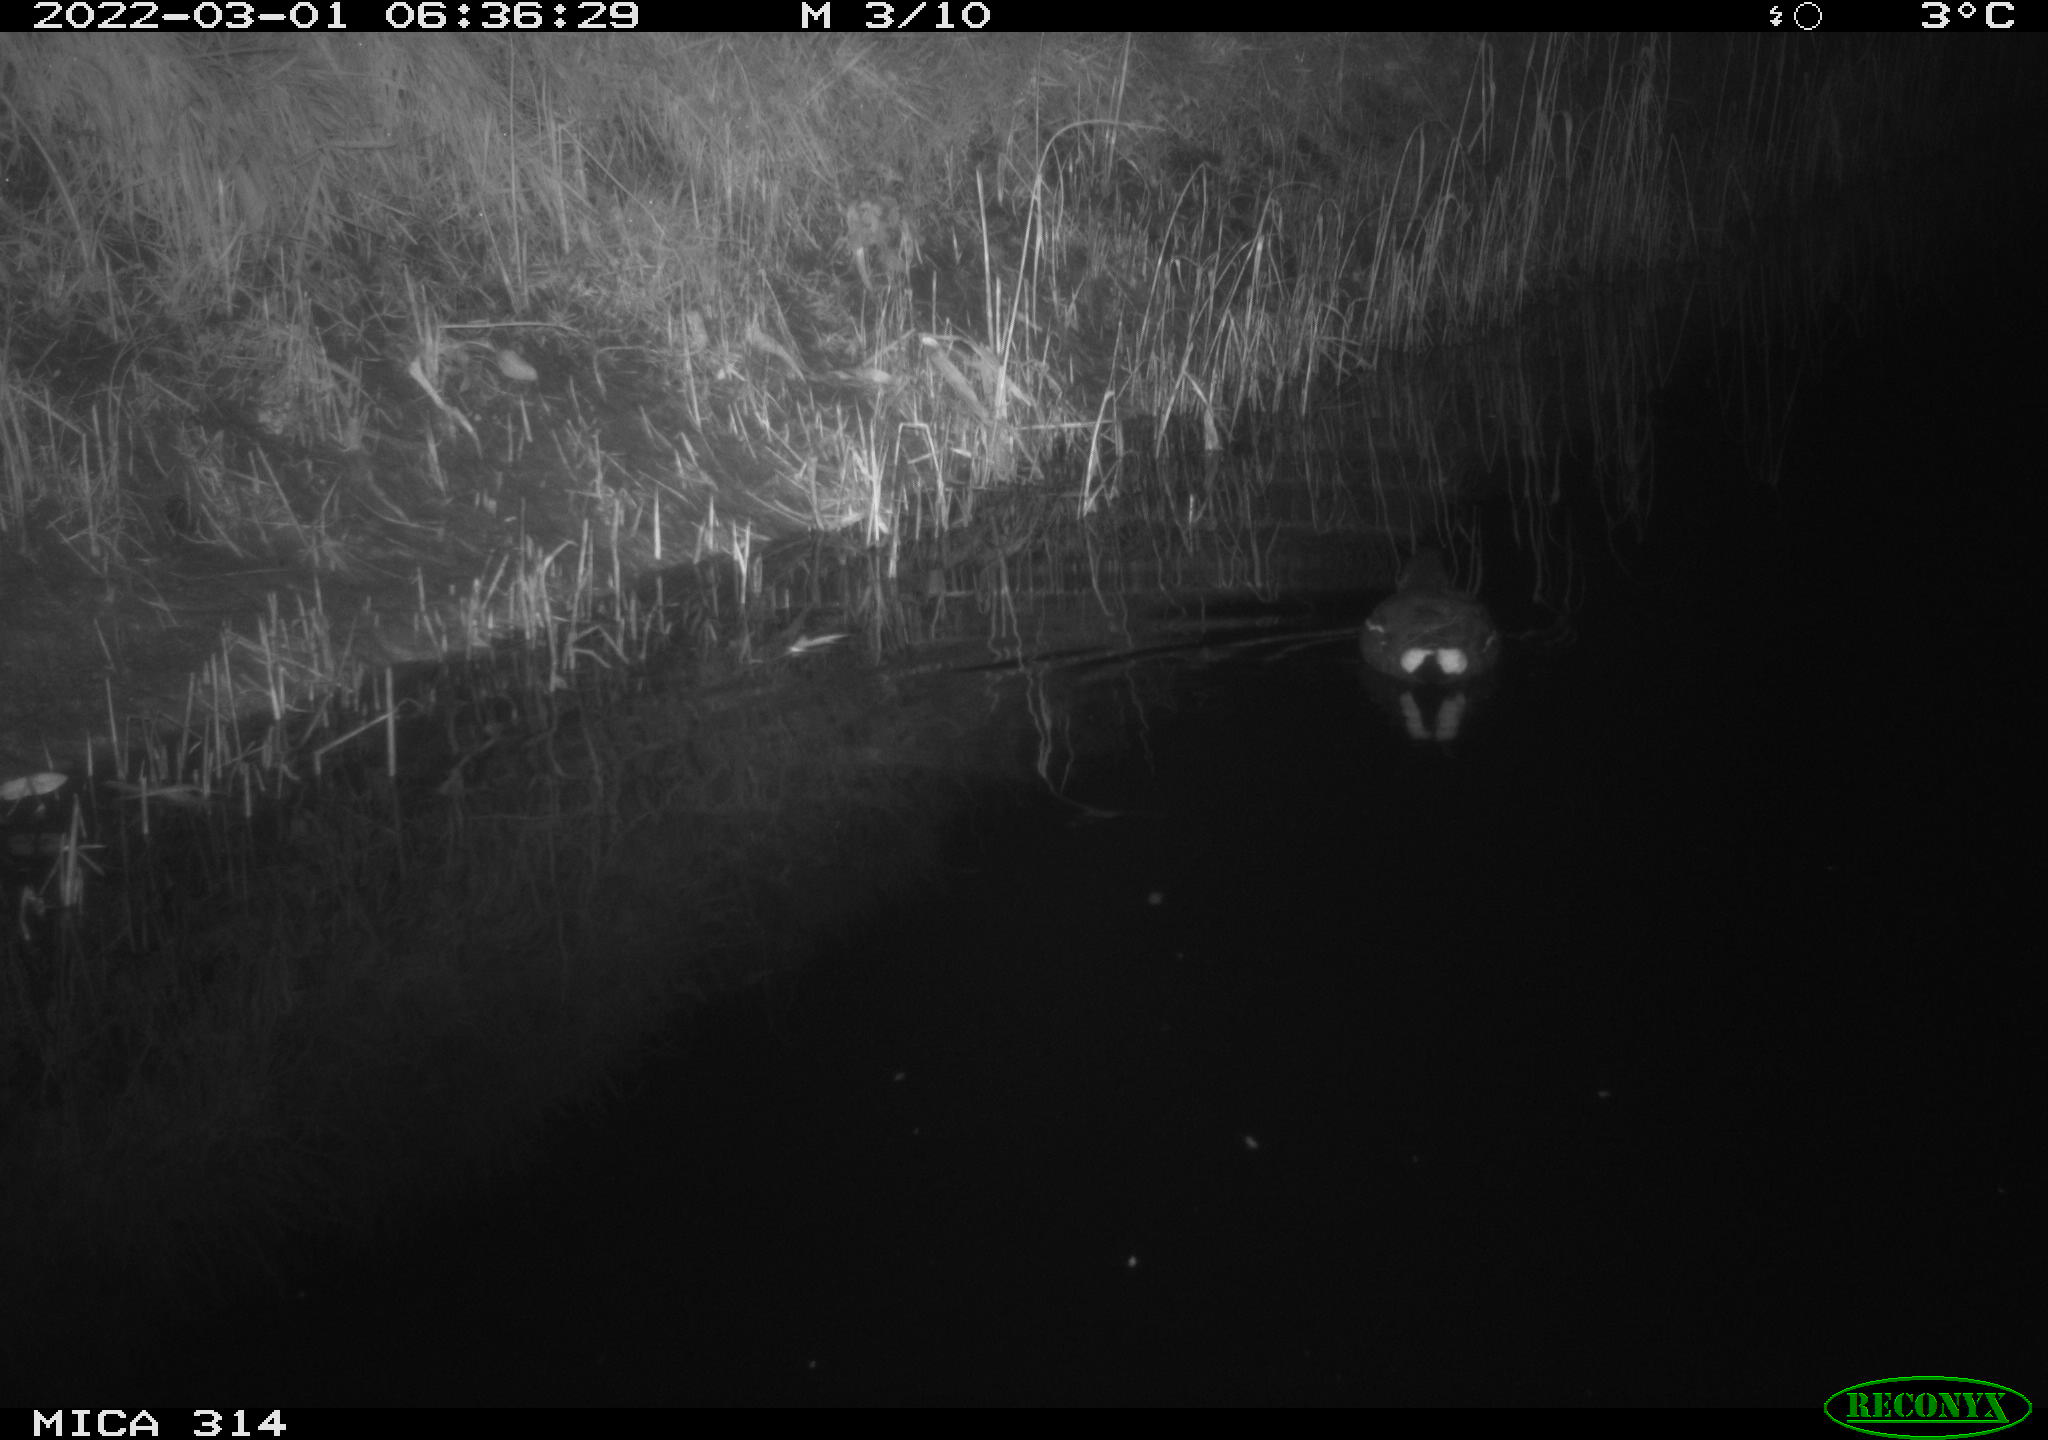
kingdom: Animalia
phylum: Chordata
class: Aves
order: Gruiformes
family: Rallidae
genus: Gallinula
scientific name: Gallinula chloropus
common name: Common moorhen
